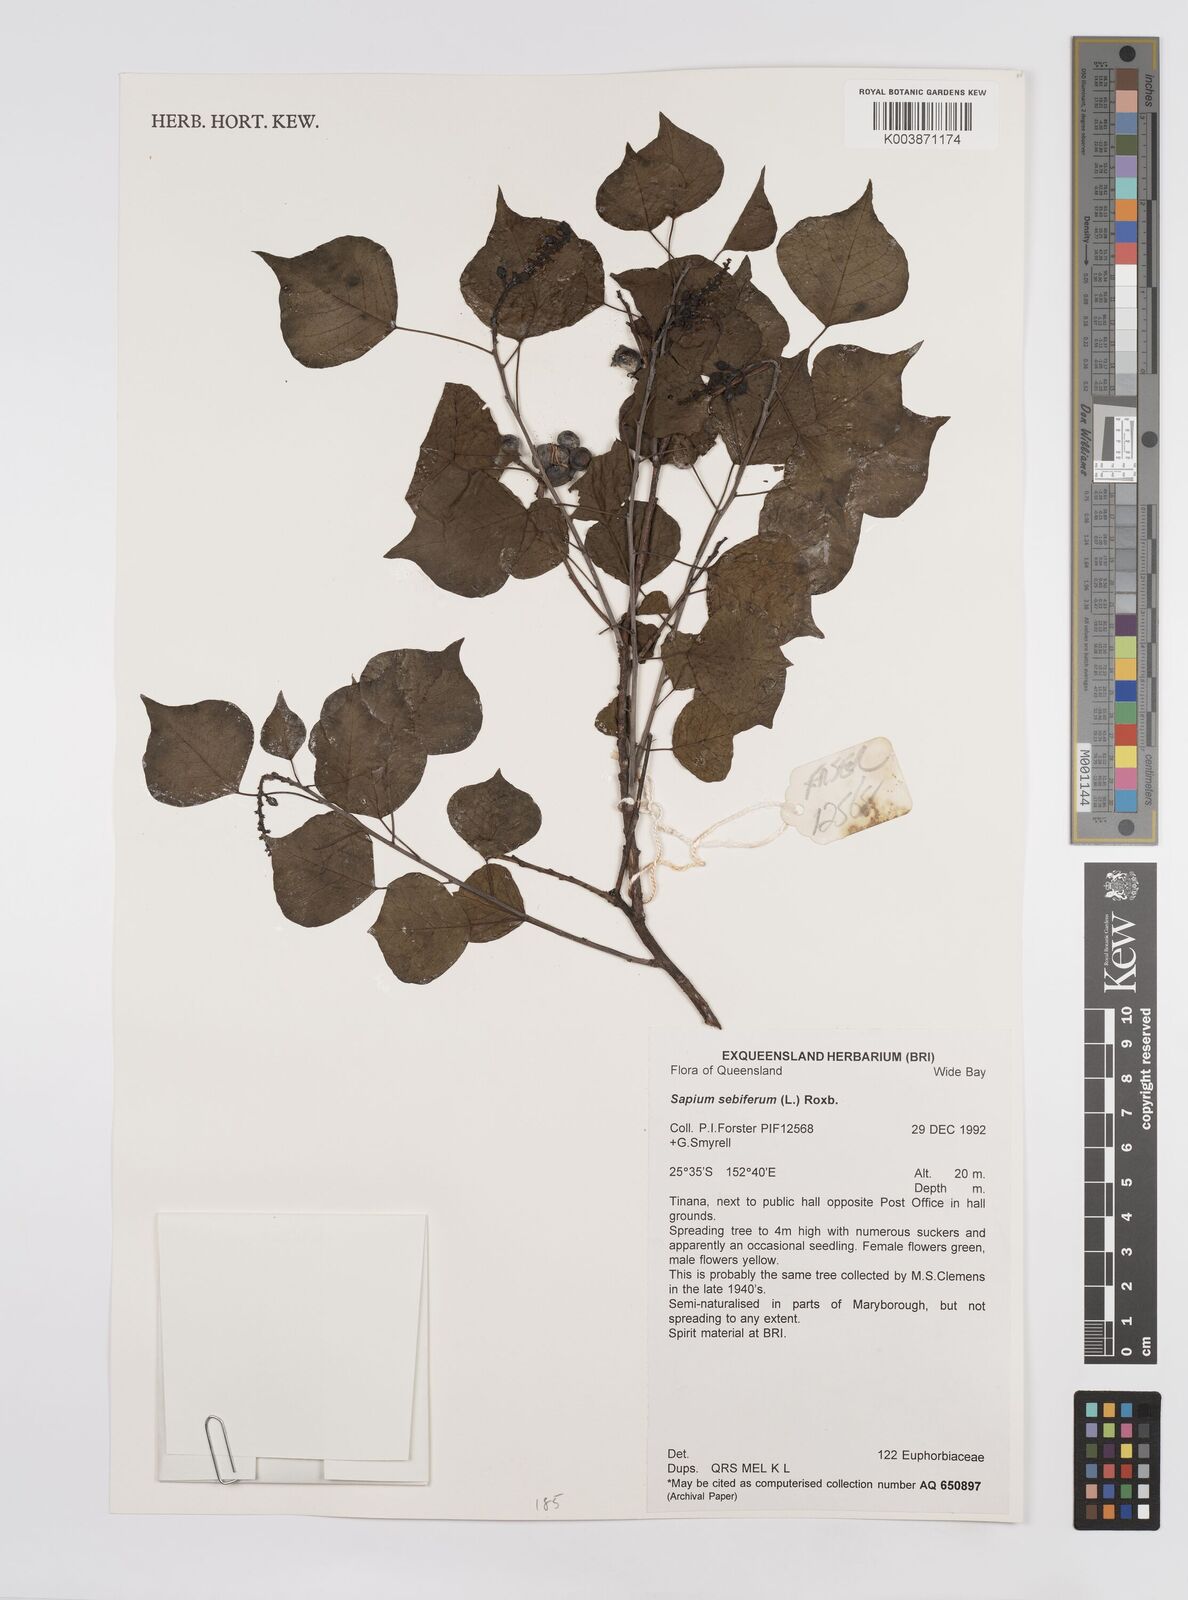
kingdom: Plantae
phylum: Tracheophyta
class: Magnoliopsida
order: Malpighiales
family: Euphorbiaceae
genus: Triadica
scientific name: Triadica sebifera
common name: Chinese tallow
